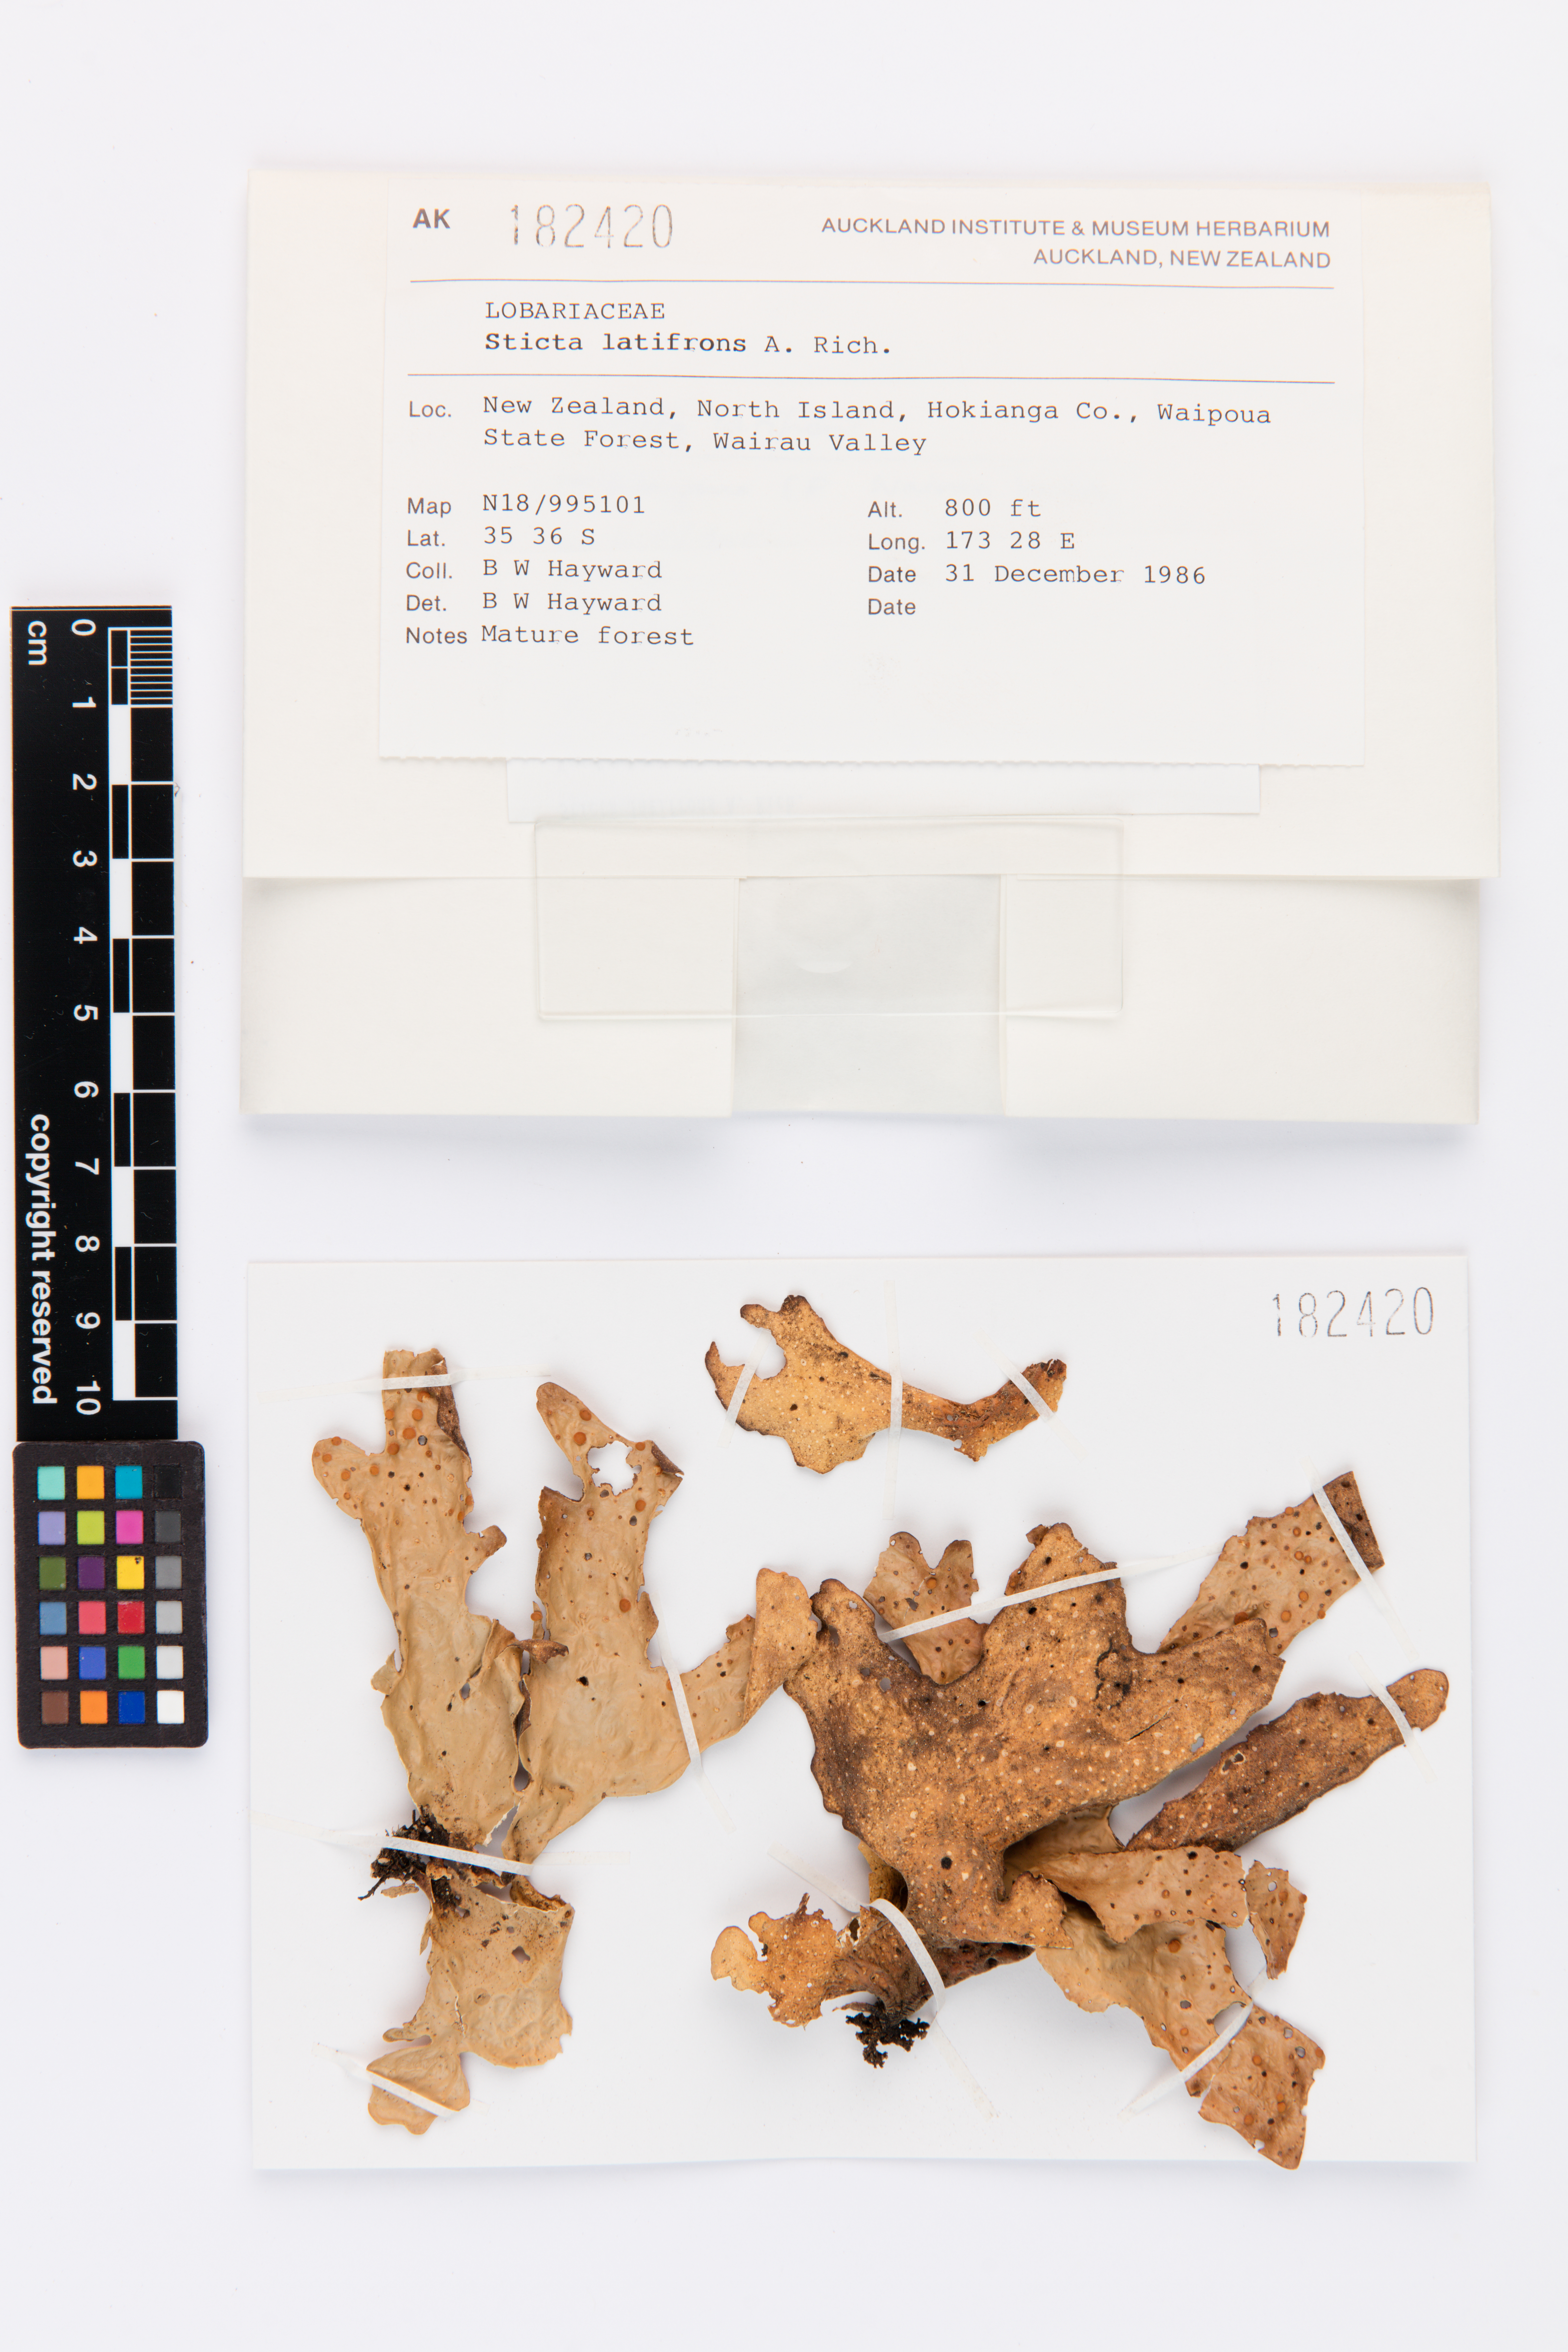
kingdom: Fungi
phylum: Ascomycota
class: Lecanoromycetes
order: Peltigerales
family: Lobariaceae
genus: Sticta
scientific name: Sticta latifrons
